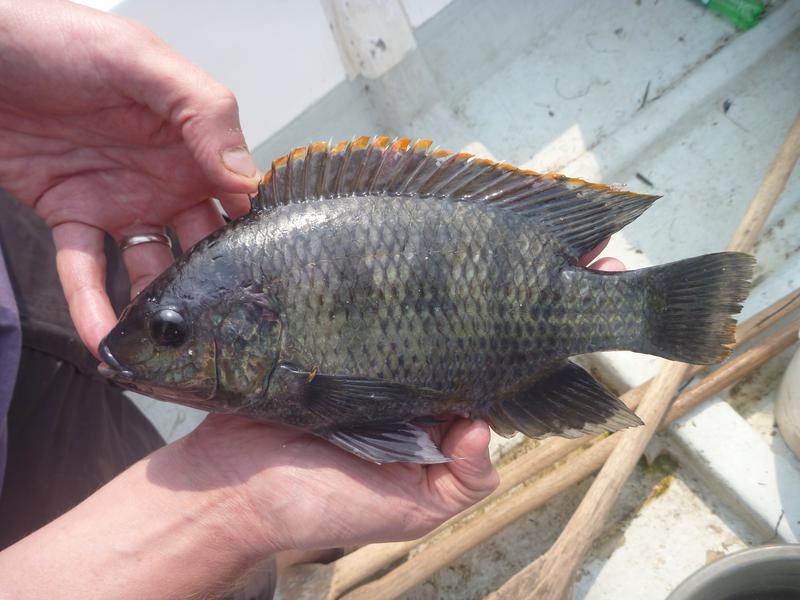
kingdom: Animalia
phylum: Chordata
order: Perciformes
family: Cichlidae
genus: Oreochromis
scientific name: Oreochromis variabilis
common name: Victoria tilapia
